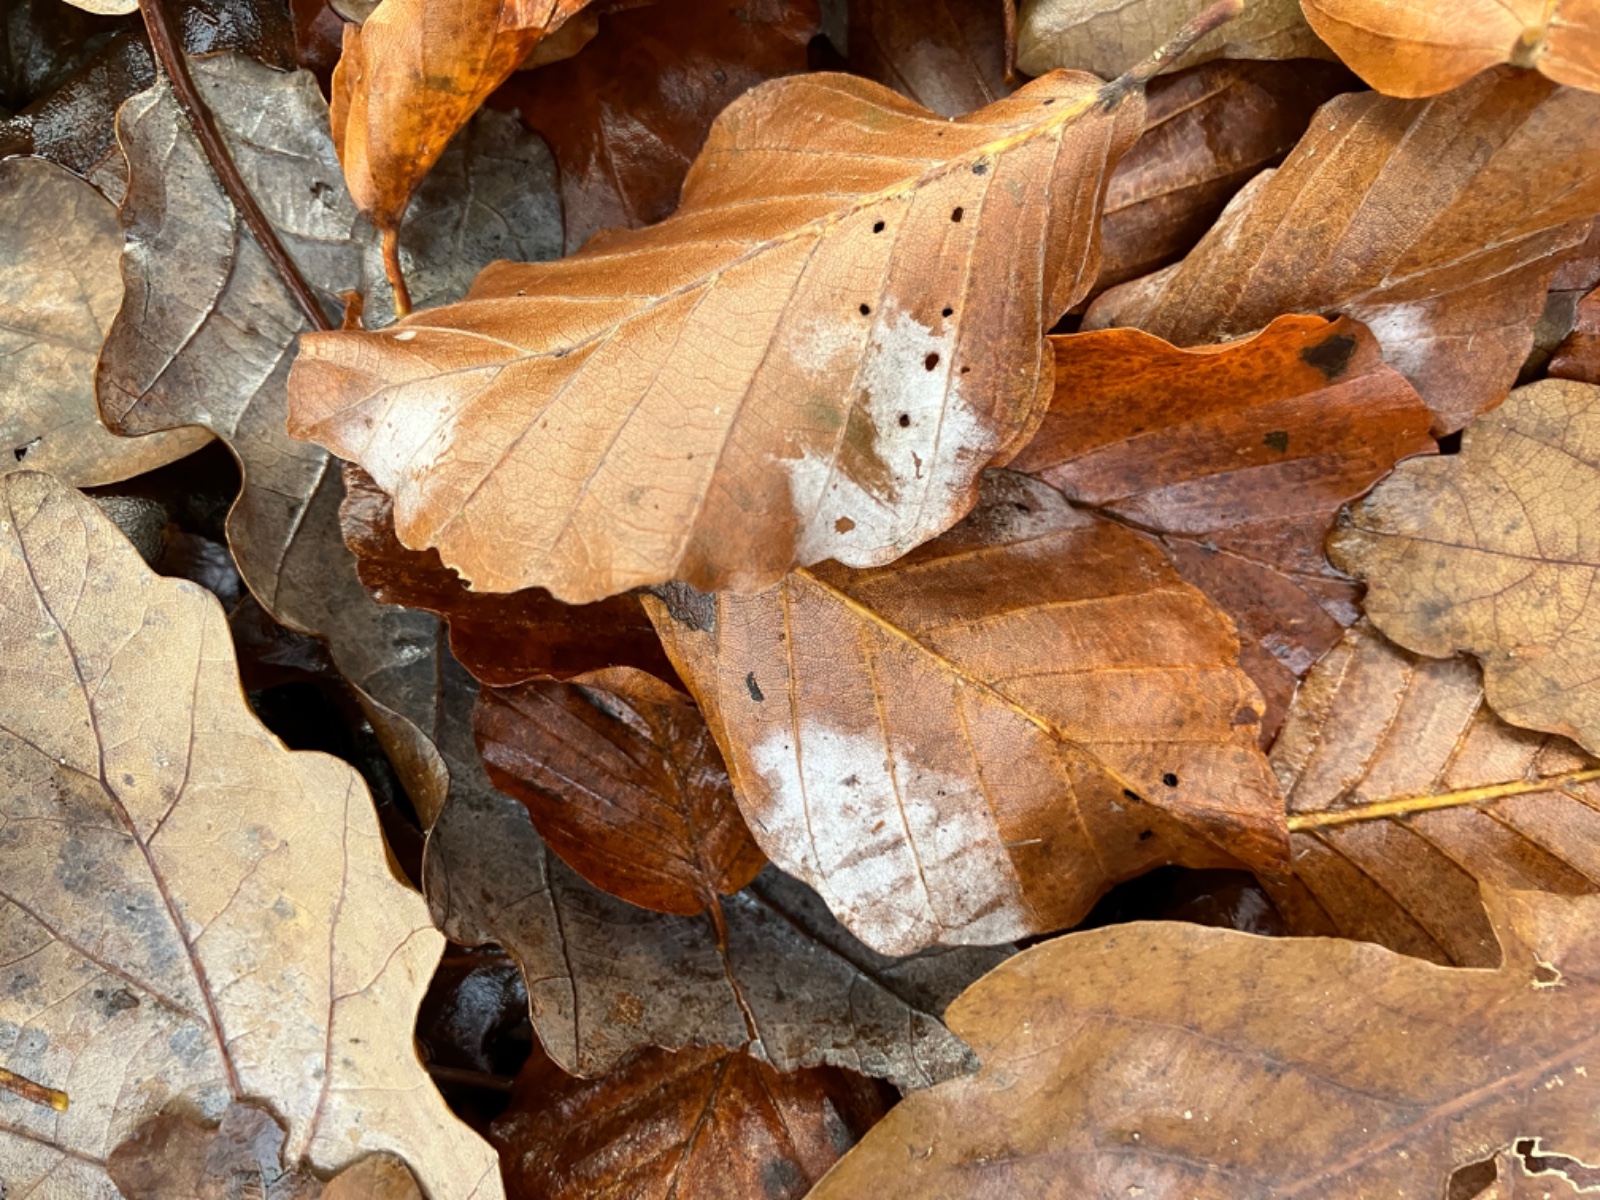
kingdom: Fungi
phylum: Ascomycota
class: Leotiomycetes
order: Helotiales
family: Erysiphaceae
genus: Phyllactinia
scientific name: Phyllactinia orbicularis
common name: bøge-meldug
